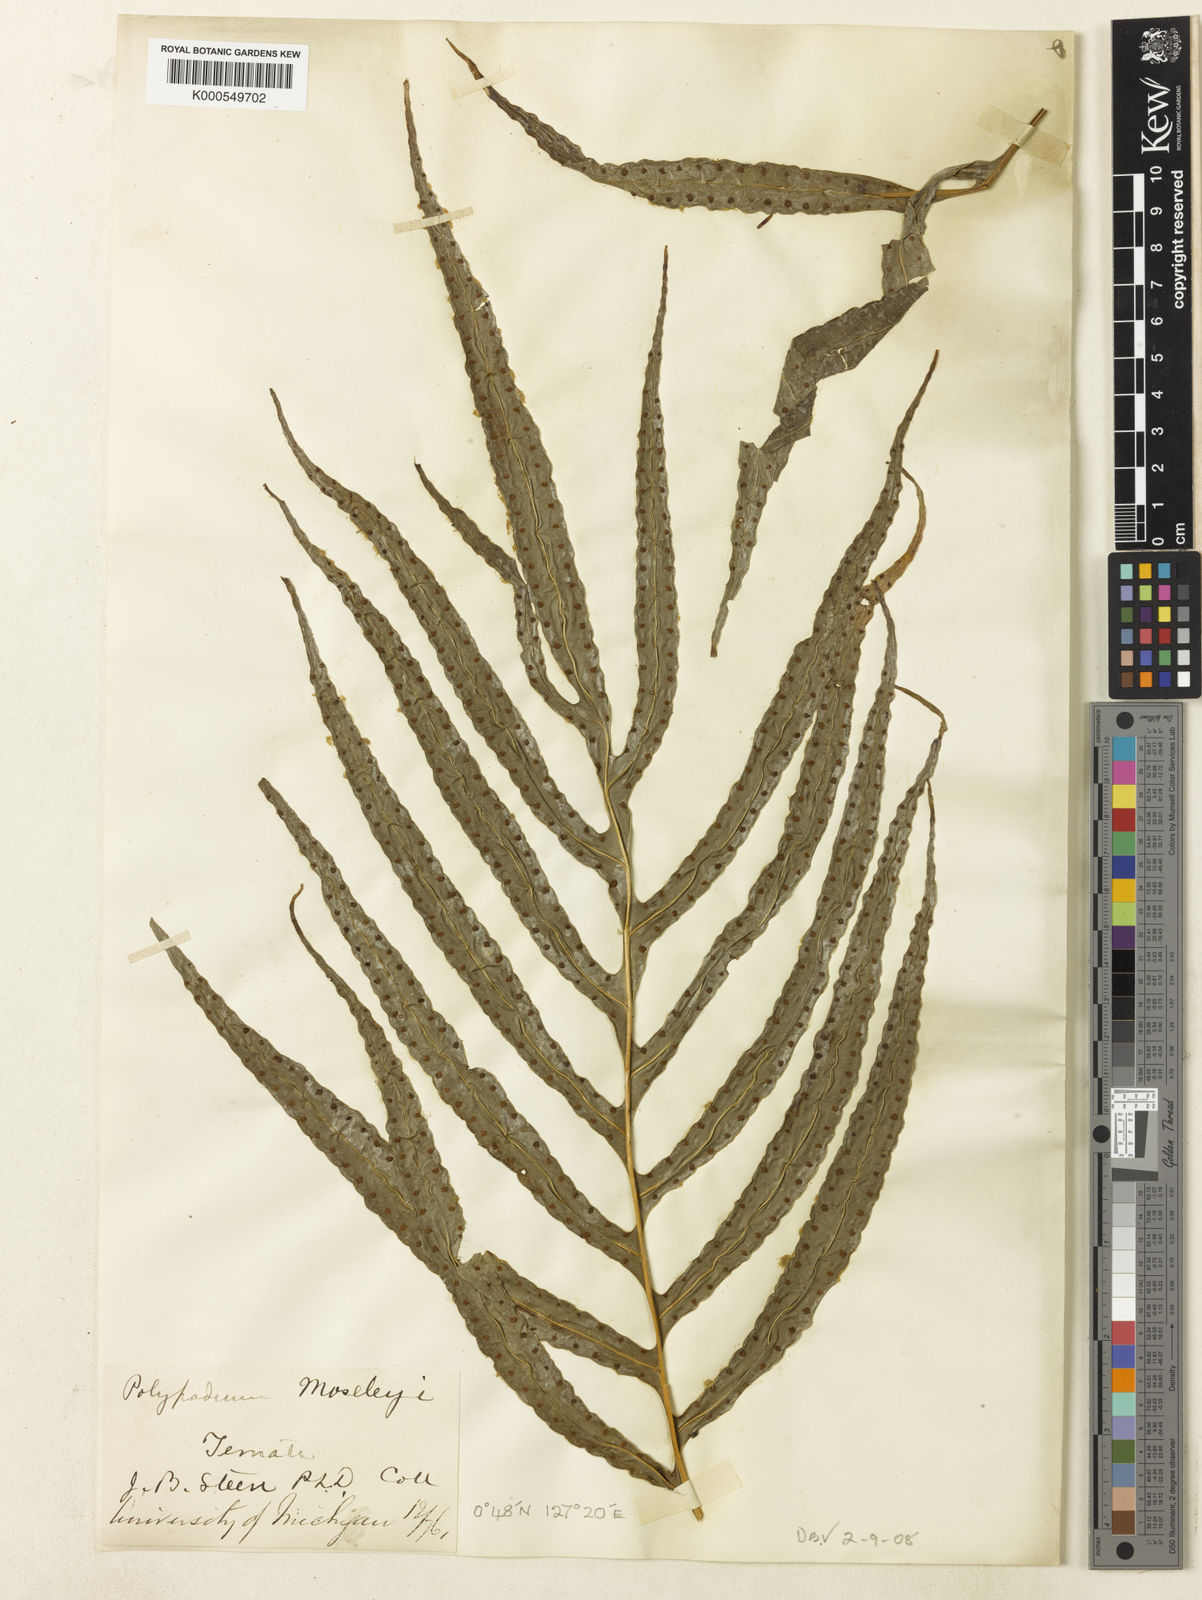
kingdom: Plantae
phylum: Tracheophyta
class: Polypodiopsida
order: Polypodiales
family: Polypodiaceae
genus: Selliguea
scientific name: Selliguea taeniata
